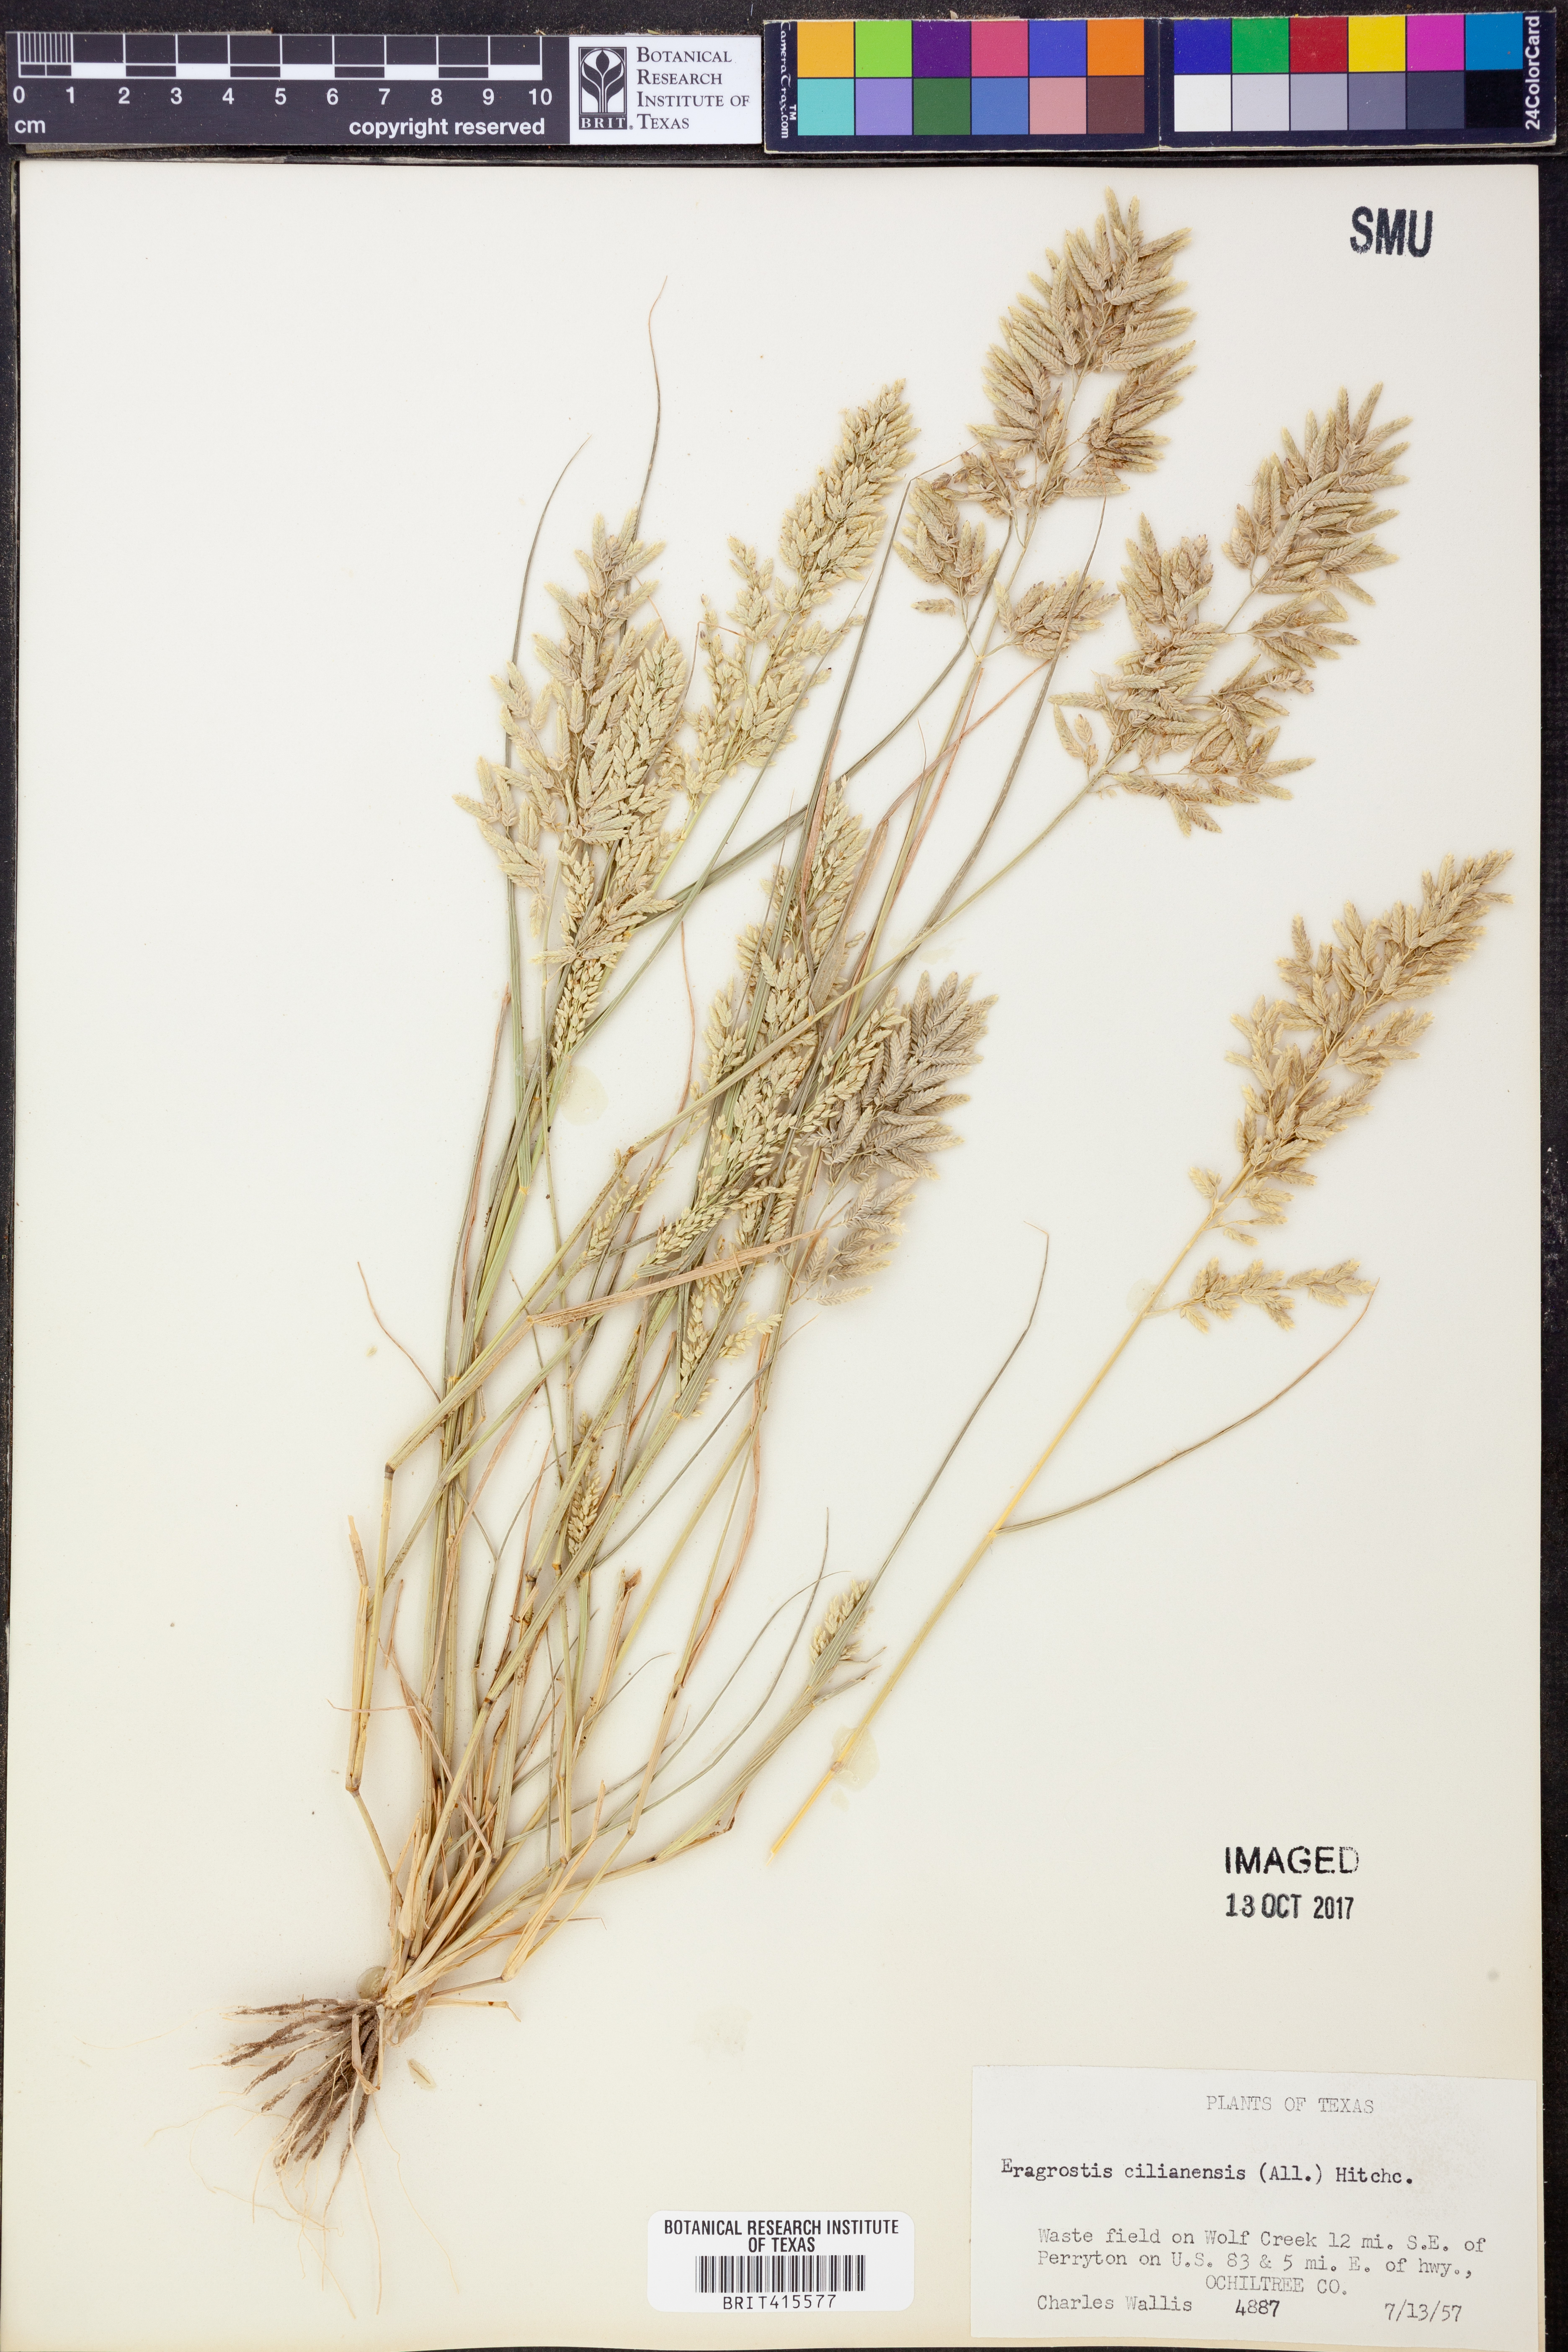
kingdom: Plantae
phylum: Tracheophyta
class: Liliopsida
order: Poales
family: Poaceae
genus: Eragrostis
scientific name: Eragrostis cilianensis
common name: Stinkgrass
